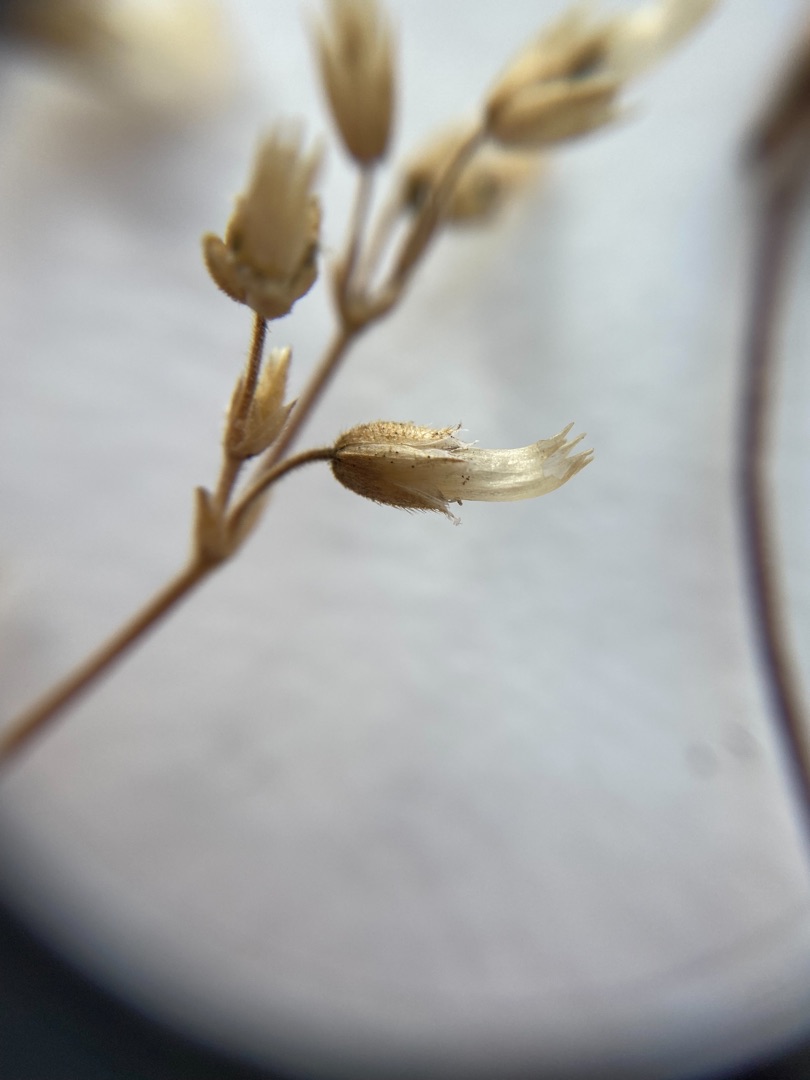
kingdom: Plantae
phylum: Tracheophyta
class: Magnoliopsida
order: Caryophyllales
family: Caryophyllaceae
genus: Cerastium
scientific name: Cerastium fontanum
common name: Almindelig hønsetarm
